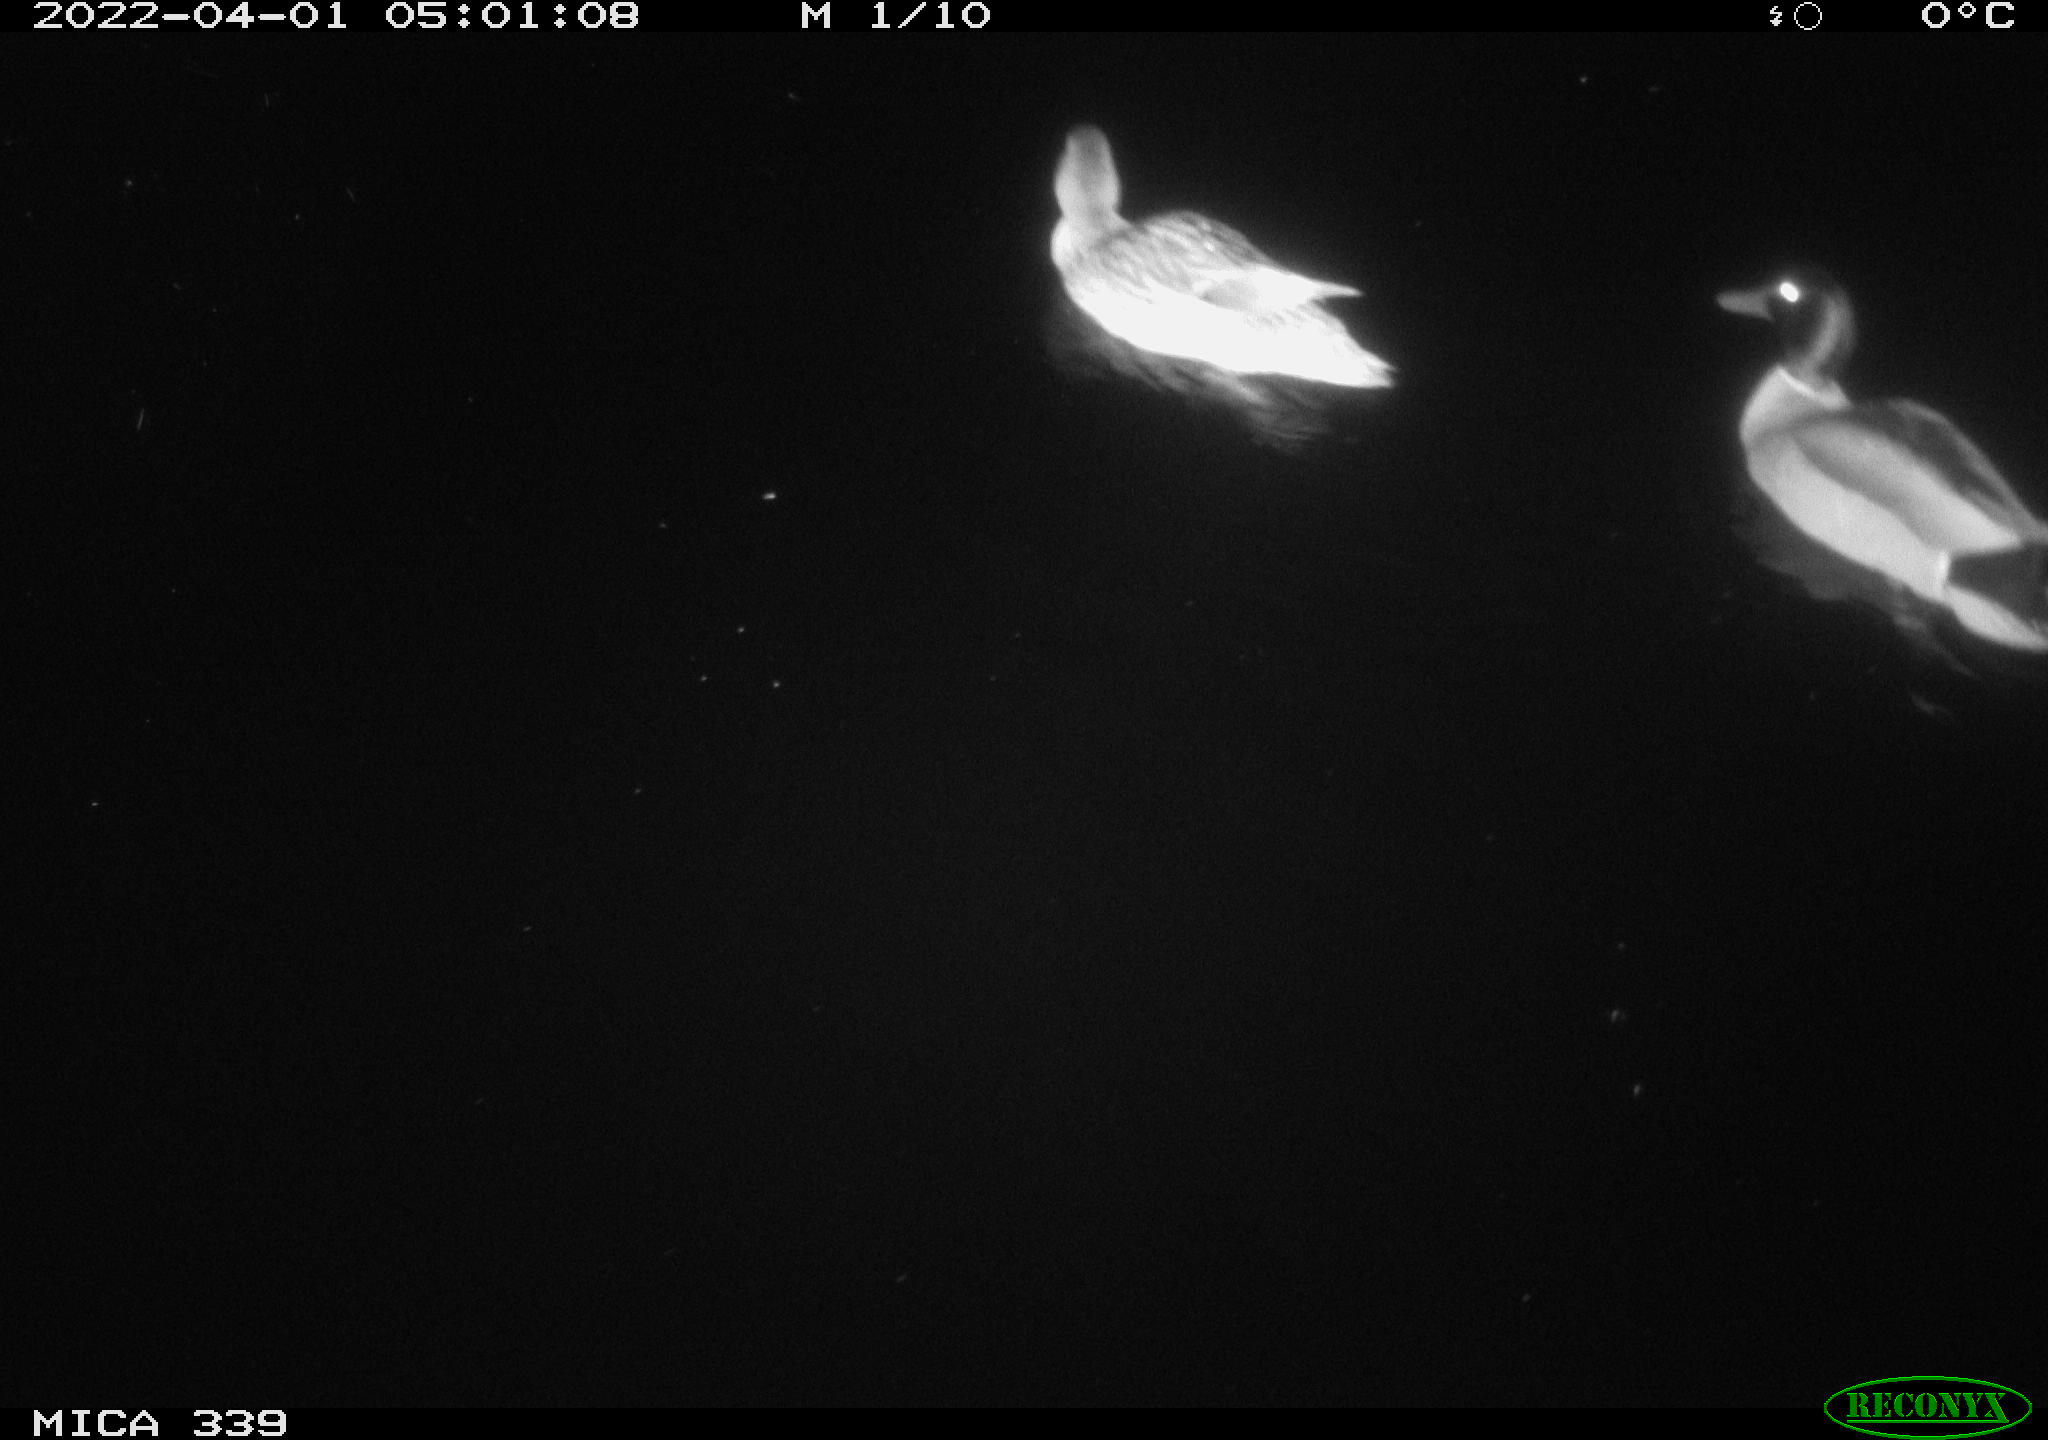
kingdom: Animalia
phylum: Chordata
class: Aves
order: Anseriformes
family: Anatidae
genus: Anas
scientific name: Anas platyrhynchos
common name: Mallard
